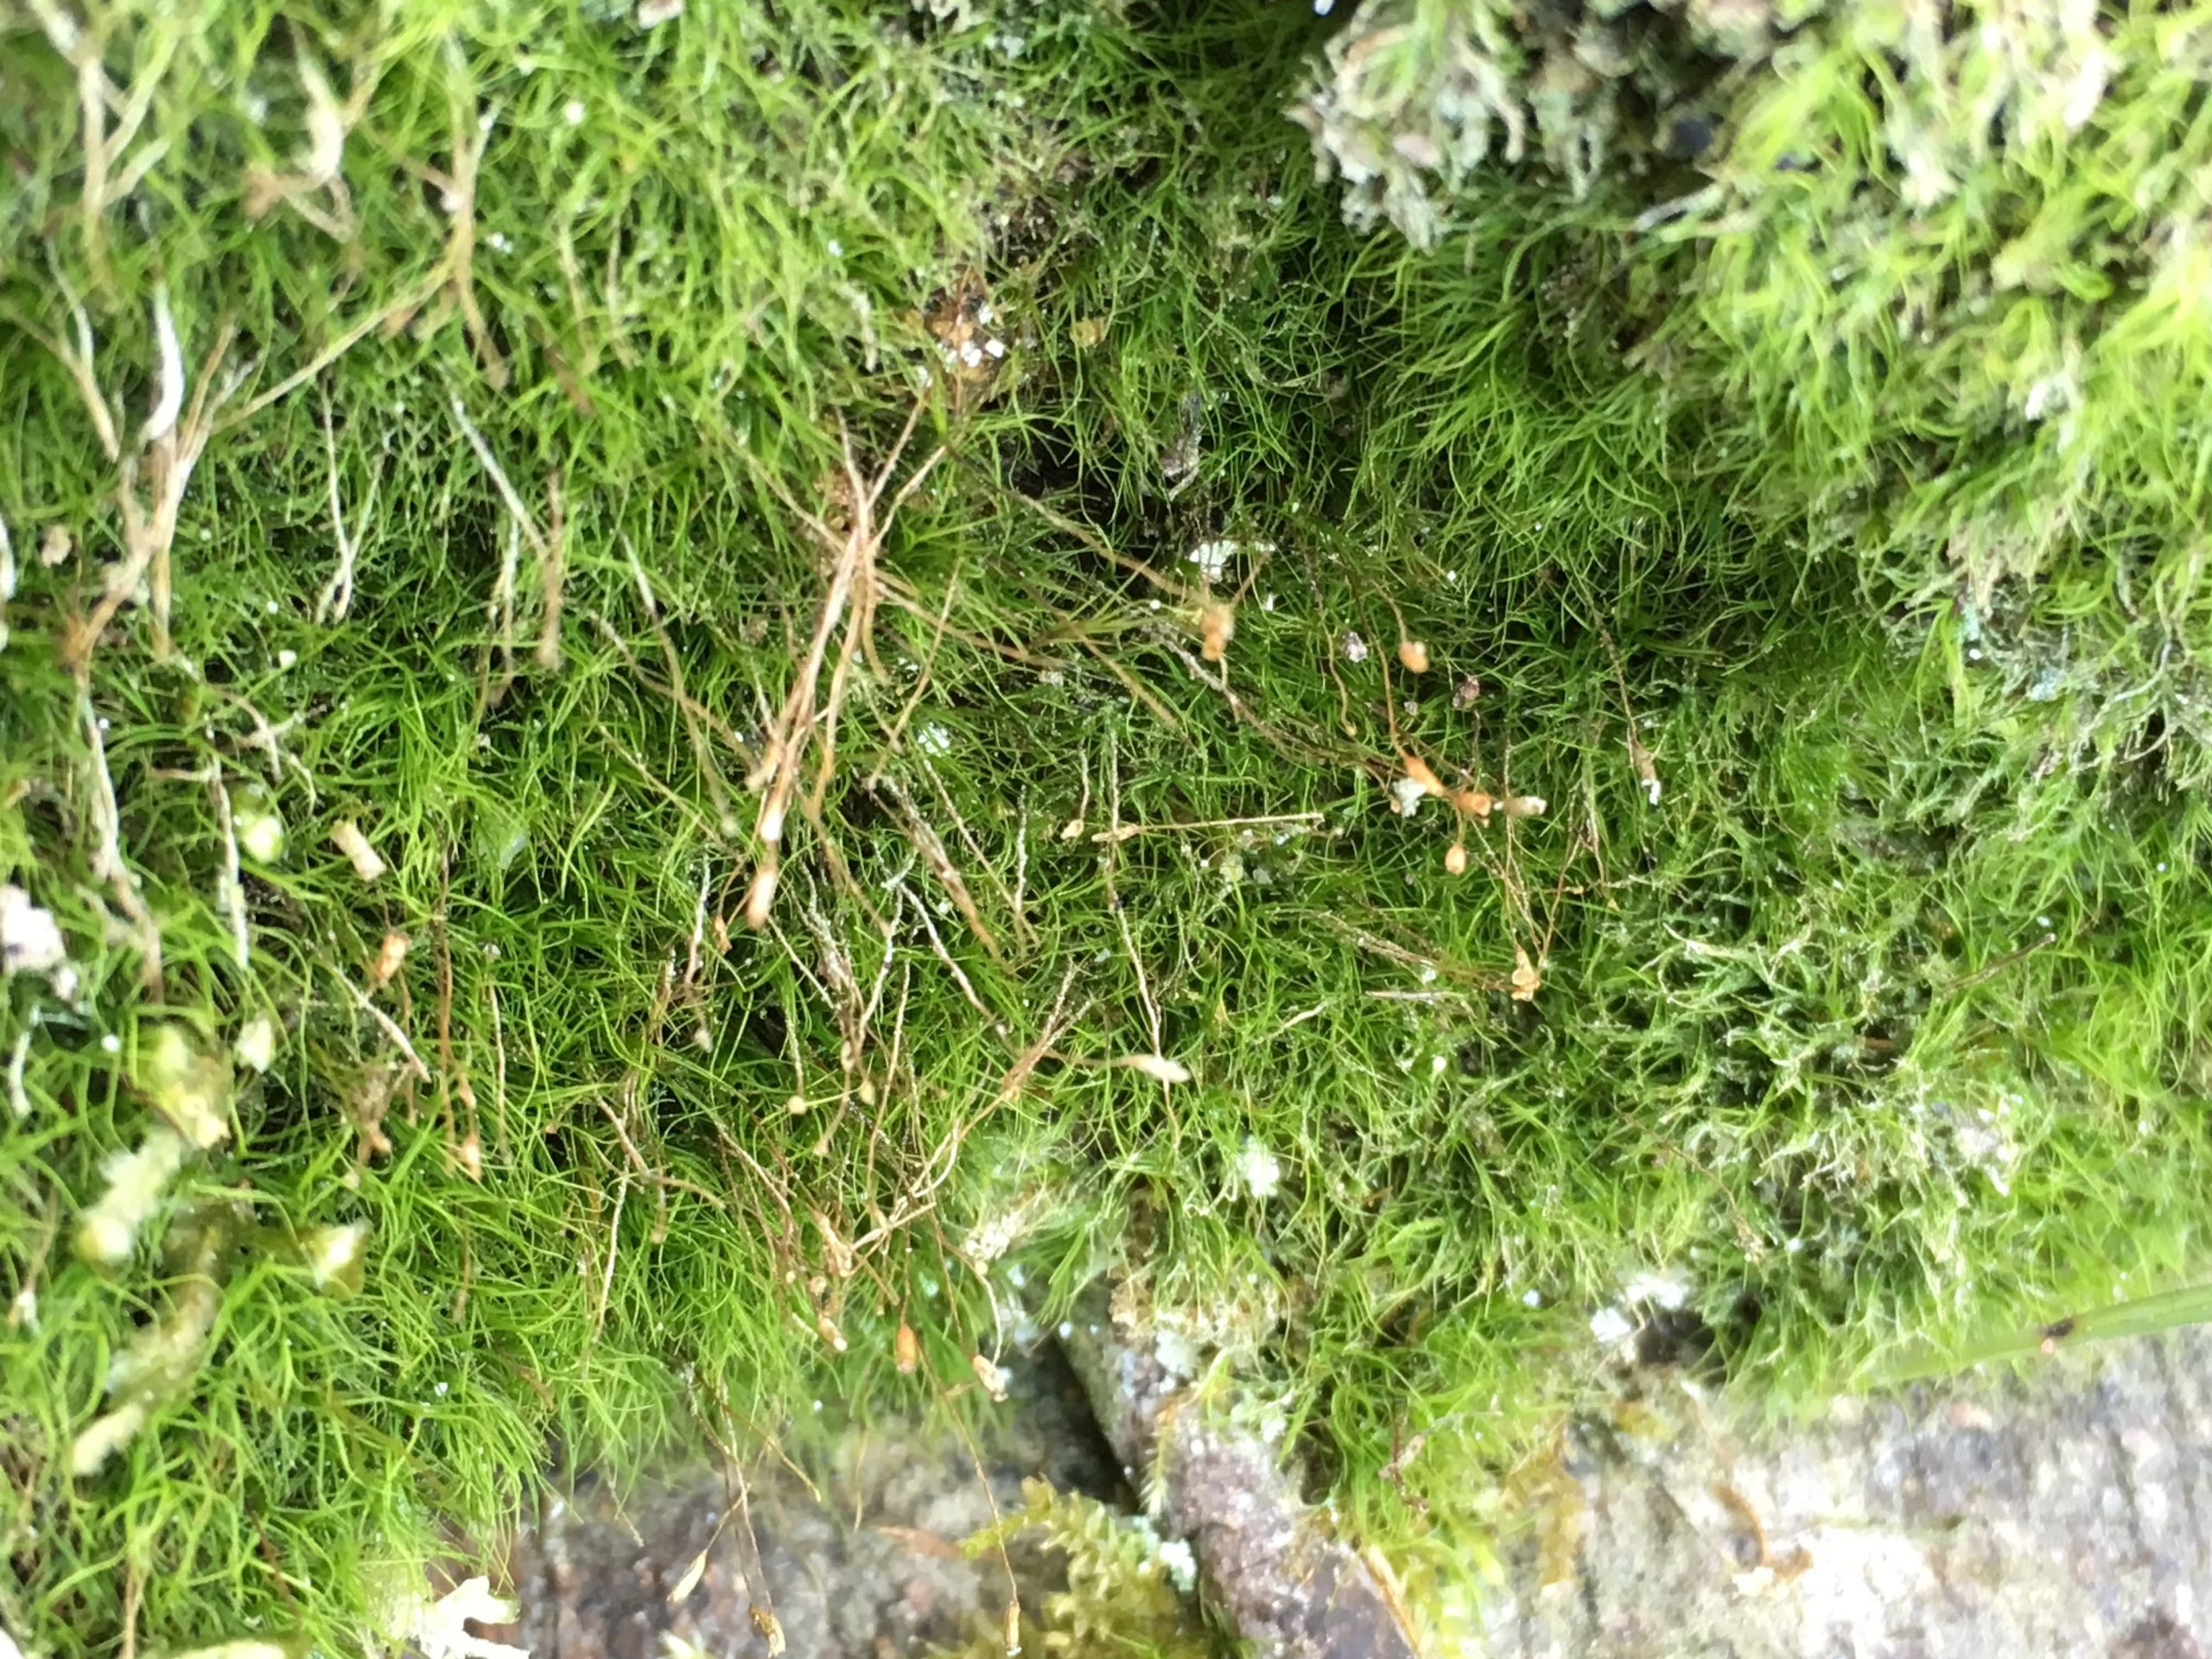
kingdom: Plantae
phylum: Bryophyta
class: Bryopsida
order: Scouleriales
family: Distichiaceae
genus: Distichium
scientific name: Distichium capillaceum
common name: Ret toradsmos
